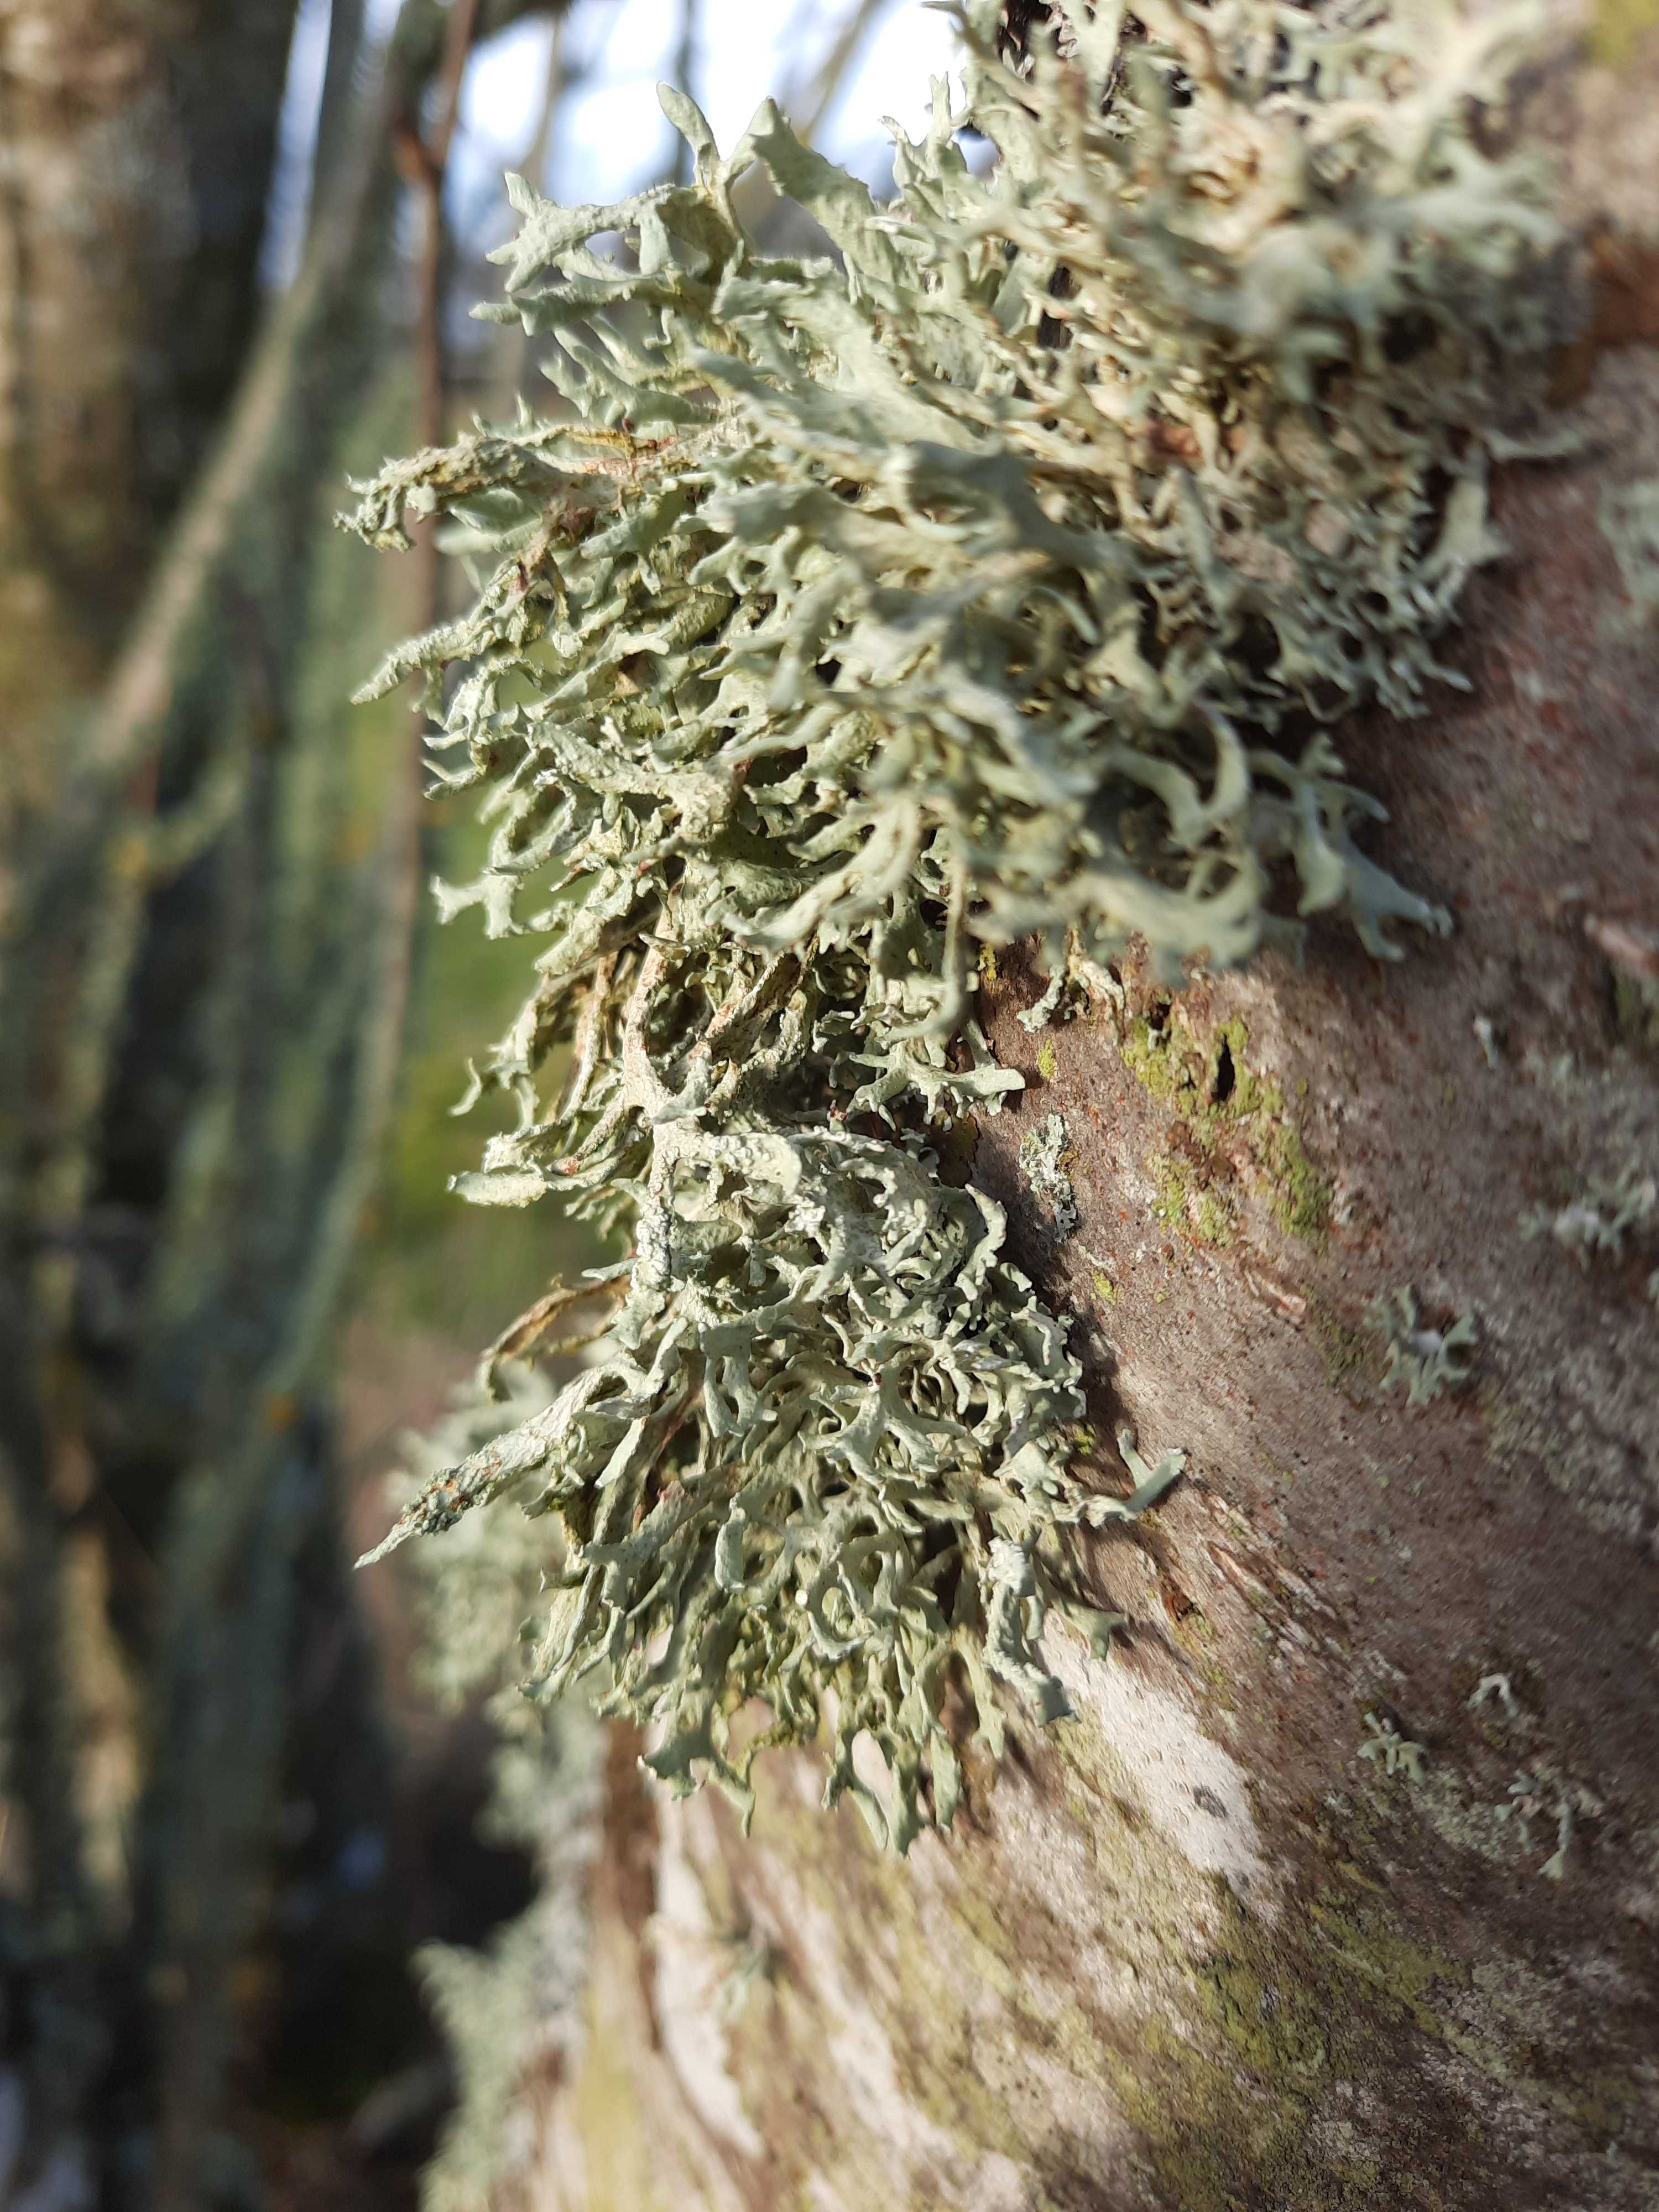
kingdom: Fungi
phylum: Ascomycota
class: Lecanoromycetes
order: Lecanorales
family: Parmeliaceae
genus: Evernia
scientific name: Evernia prunastri
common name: almindelig slåenlav
